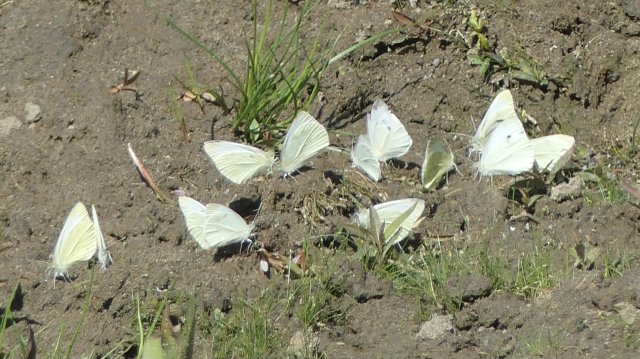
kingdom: Animalia
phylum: Arthropoda
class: Insecta
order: Lepidoptera
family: Pieridae
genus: Pieris
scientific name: Pieris rapae
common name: Cabbage White
